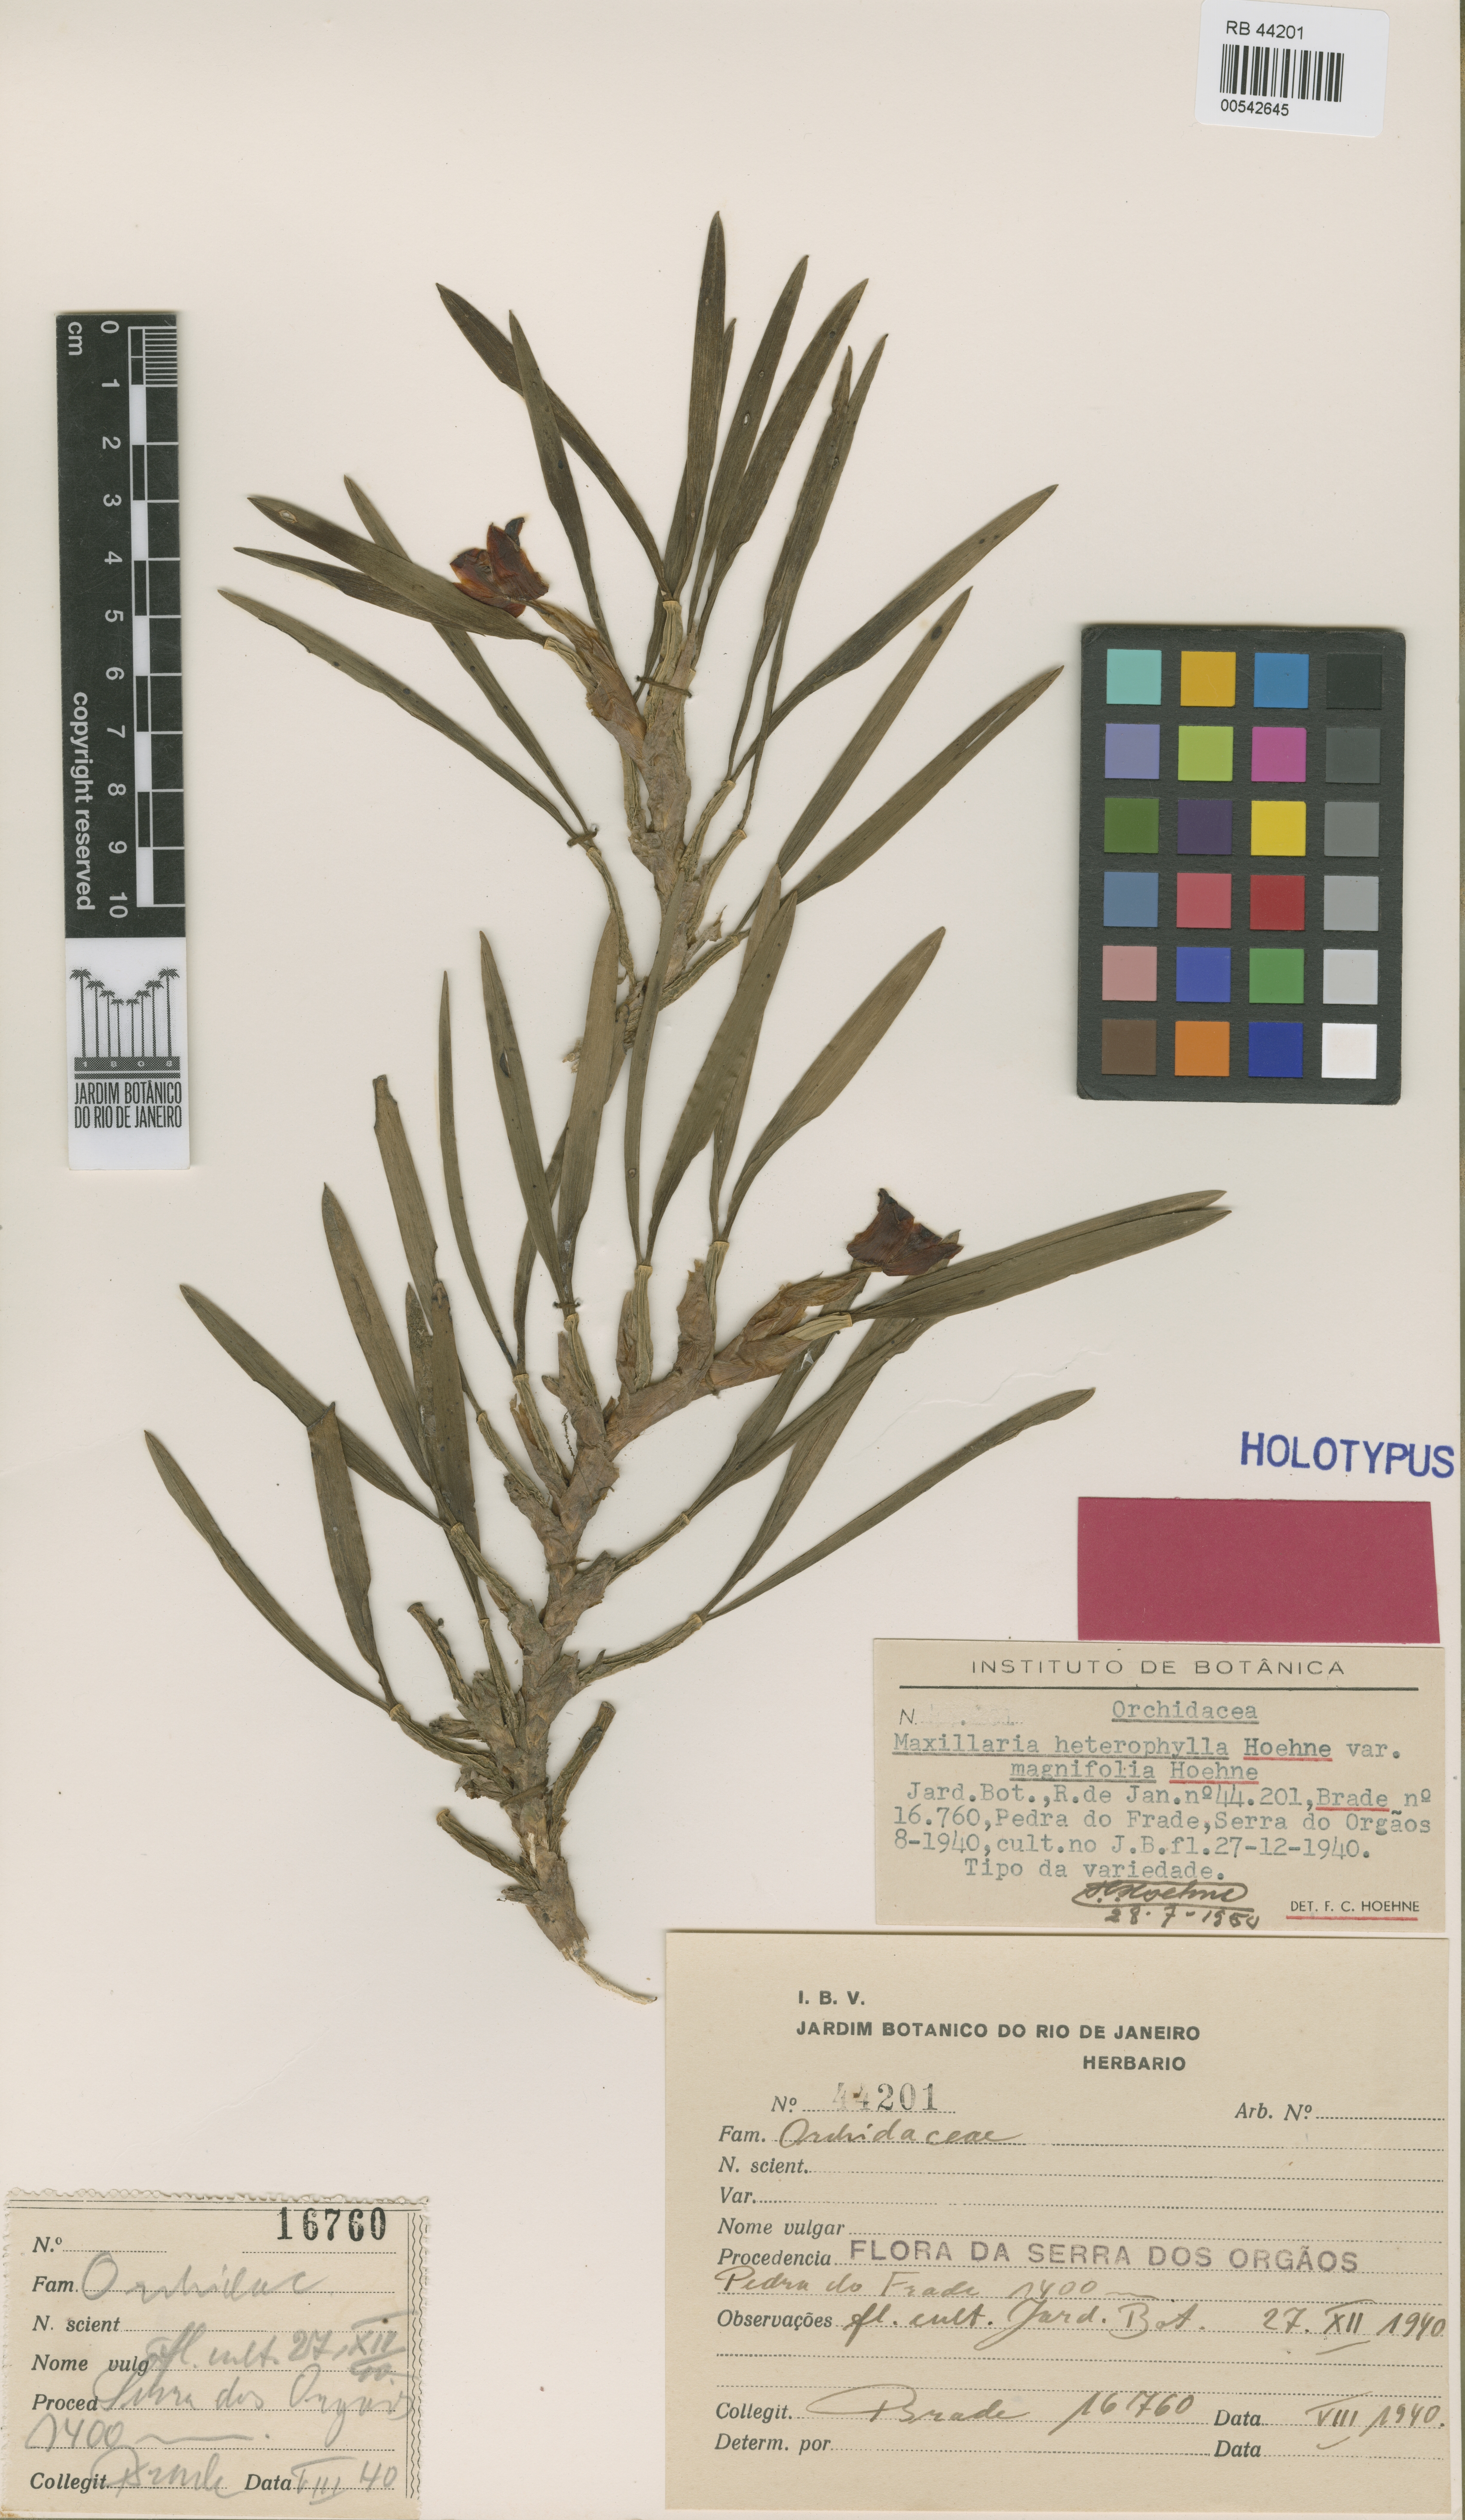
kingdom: Plantae
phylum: Tracheophyta
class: Liliopsida
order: Asparagales
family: Orchidaceae
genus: Maxillaria
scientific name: Maxillaria paranaensis
